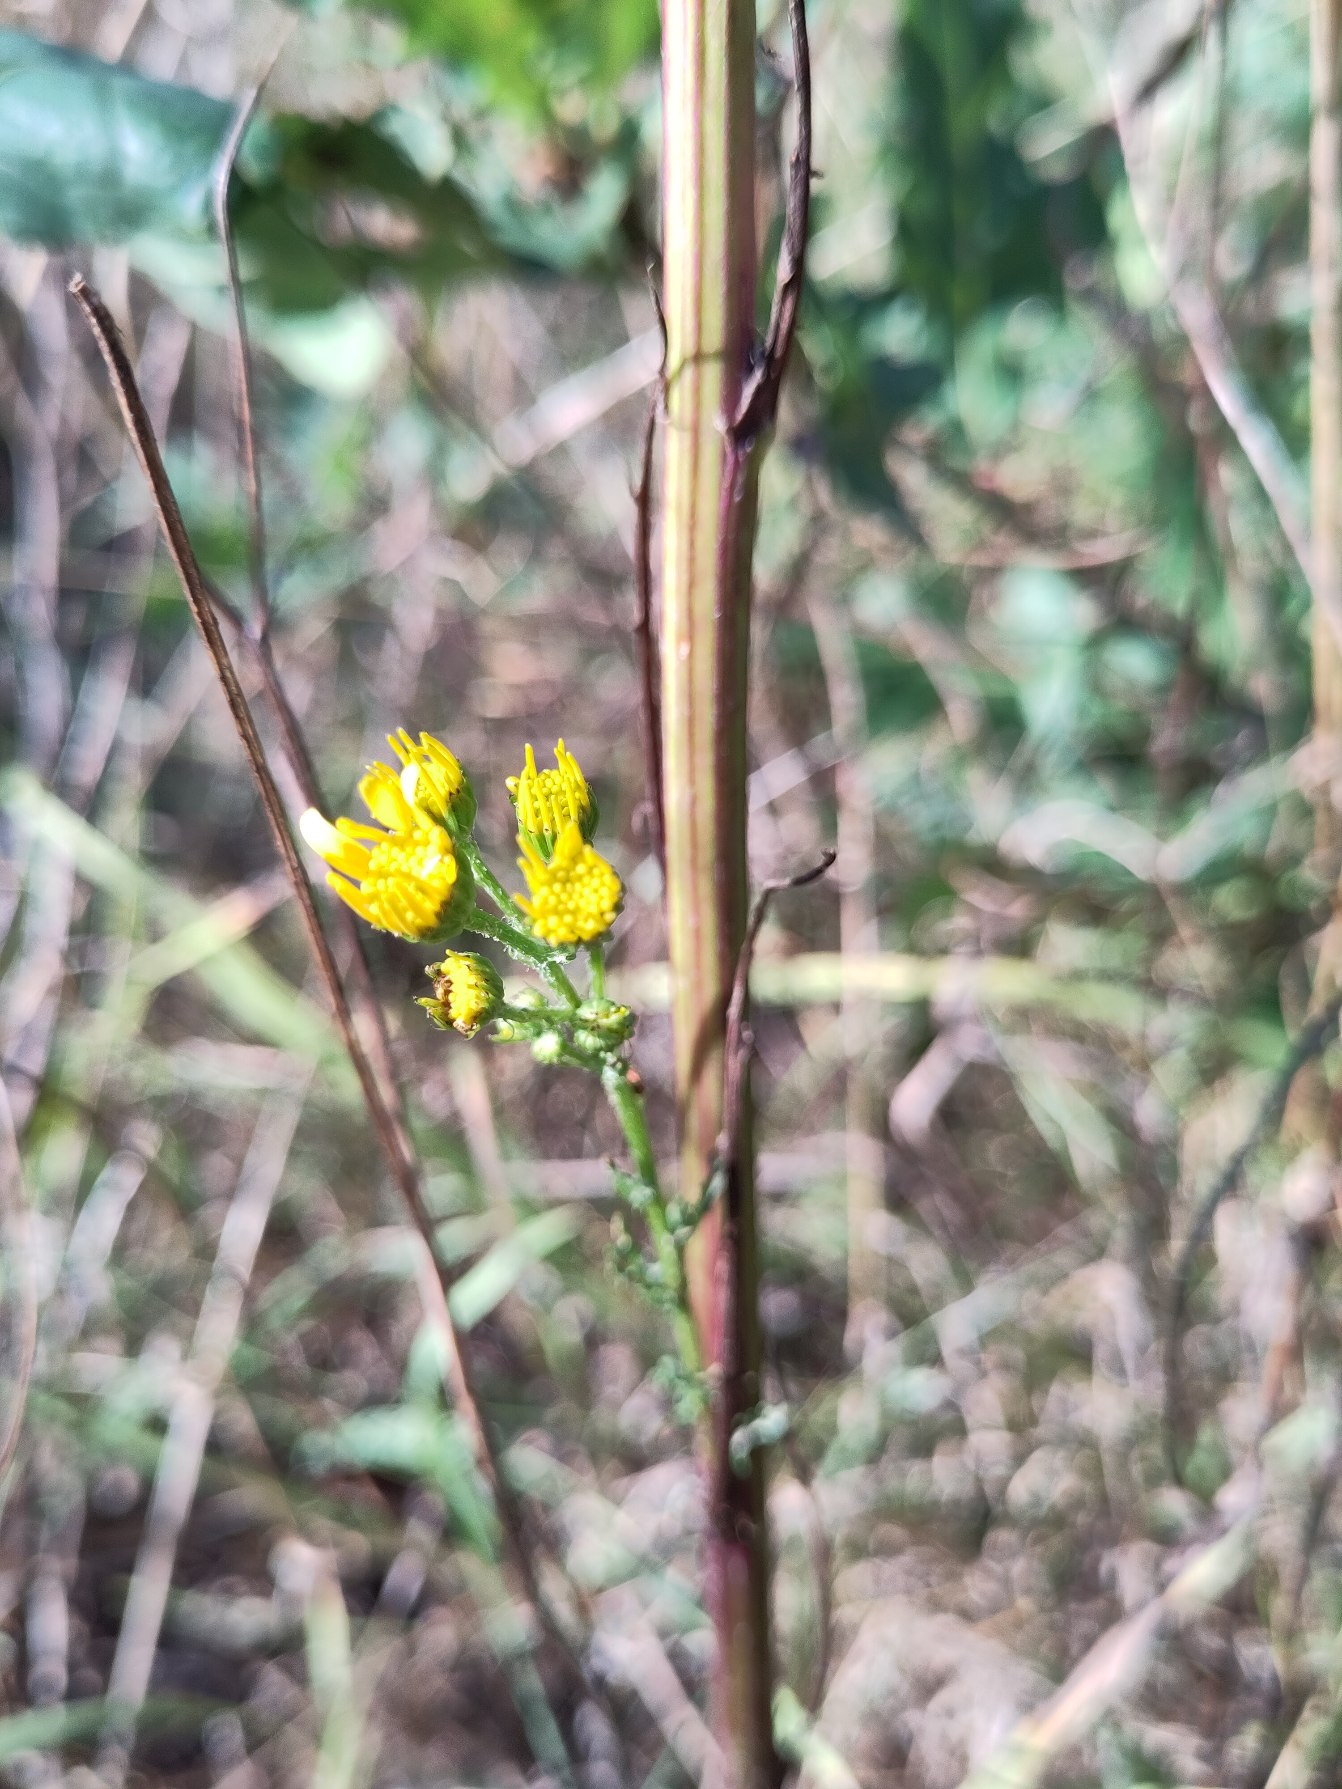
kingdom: Plantae
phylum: Tracheophyta
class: Magnoliopsida
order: Asterales
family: Asteraceae
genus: Senecio
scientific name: Senecio
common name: Brandbægerslægten
